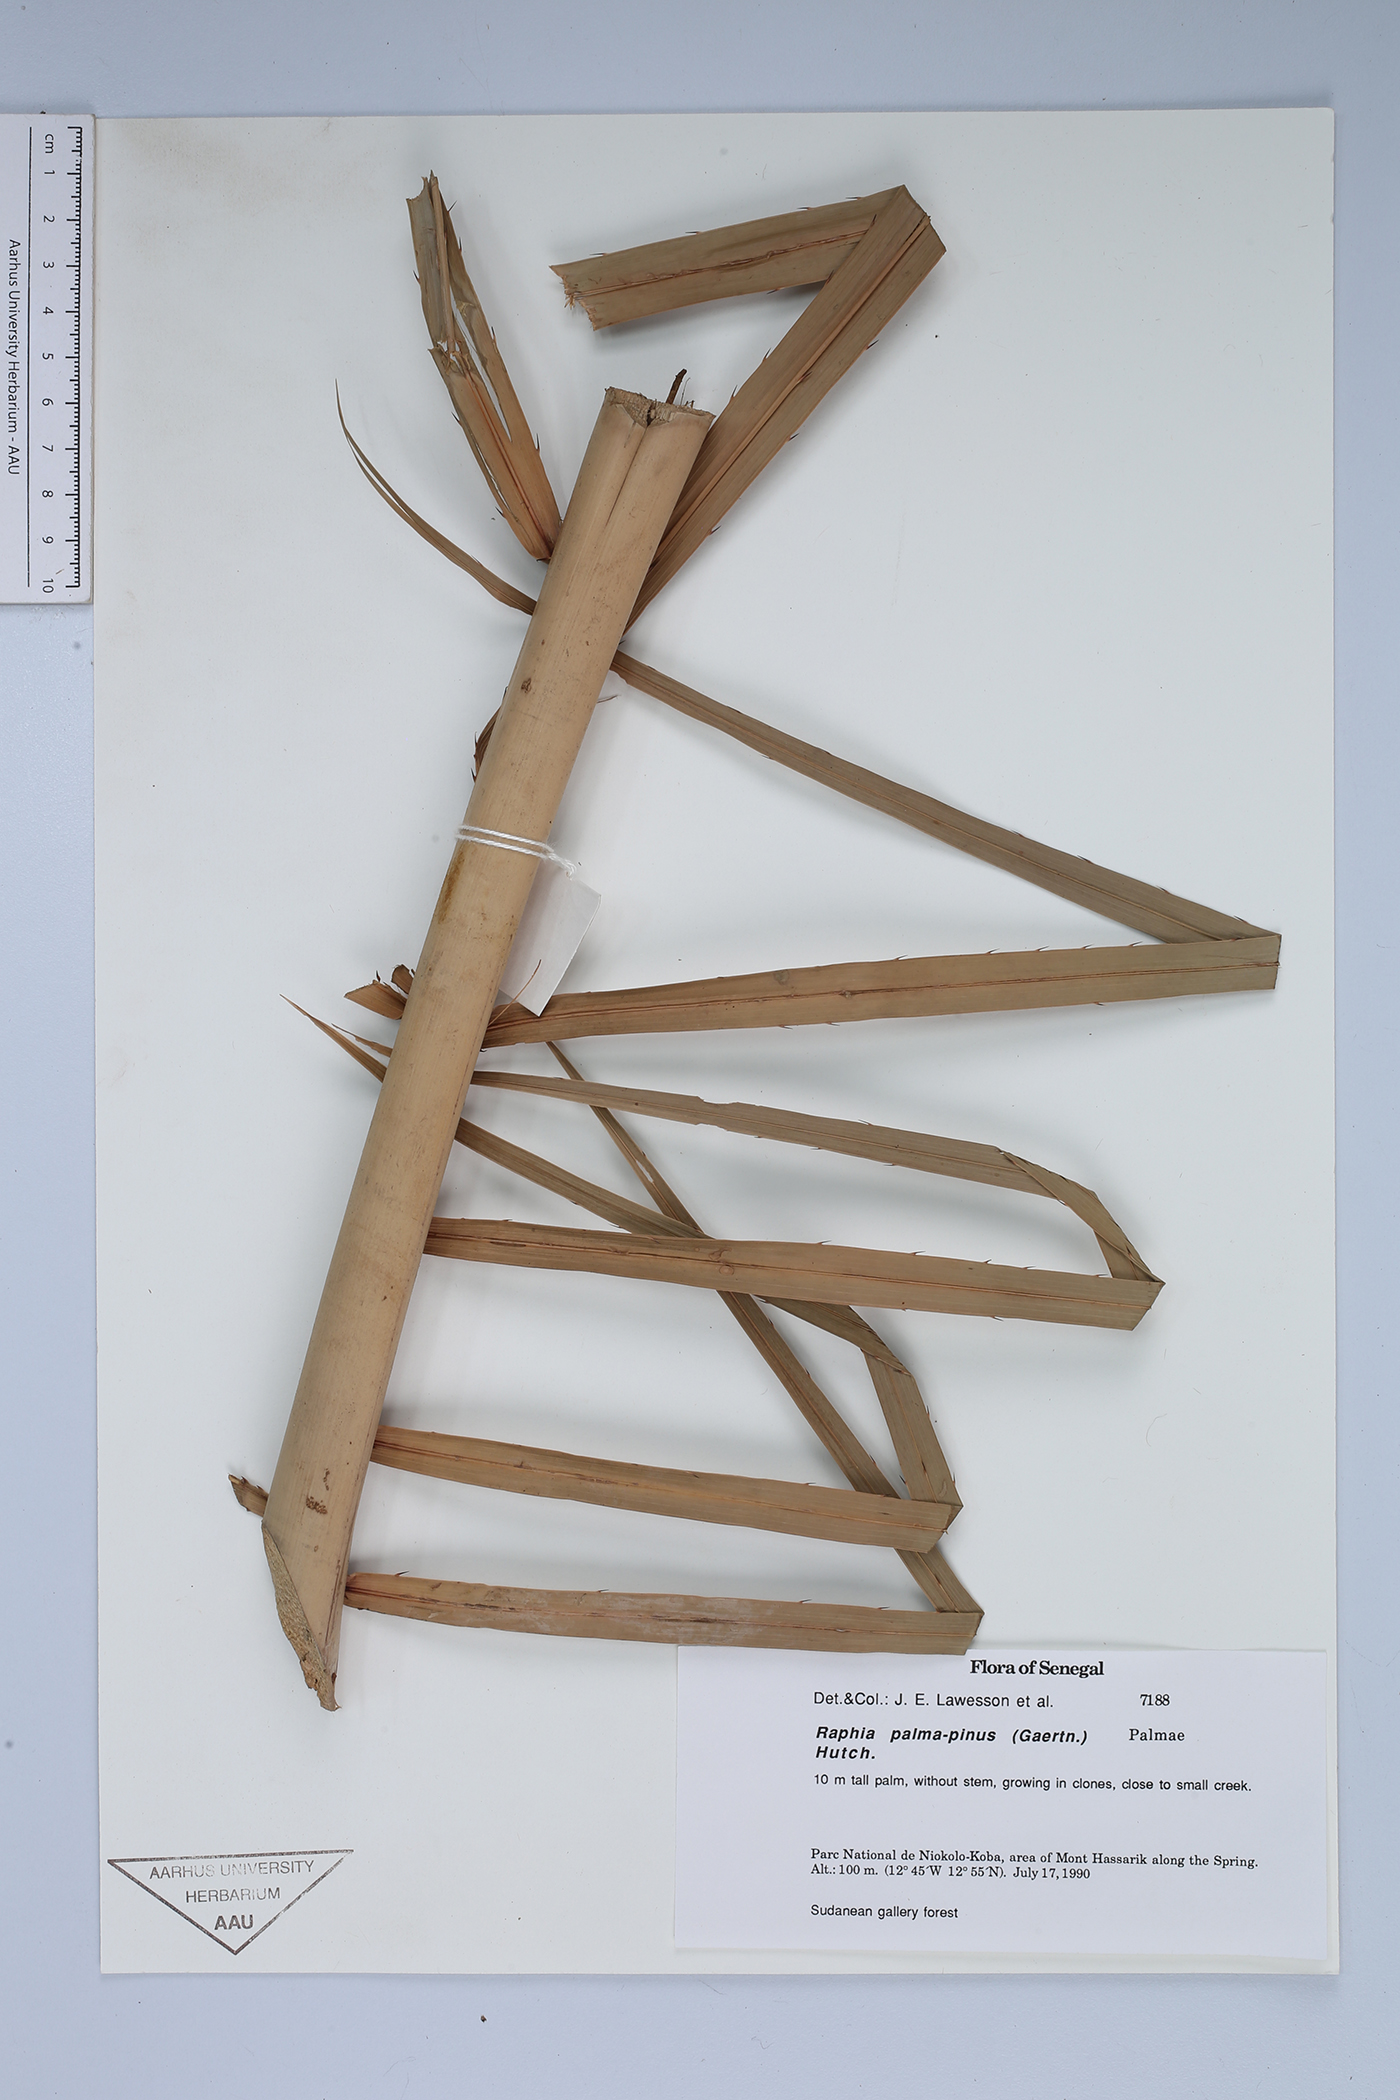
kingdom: Plantae
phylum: Tracheophyta
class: Liliopsida
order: Arecales
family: Arecaceae
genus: Raphia
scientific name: Raphia palma-pinus
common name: Raphia palm
